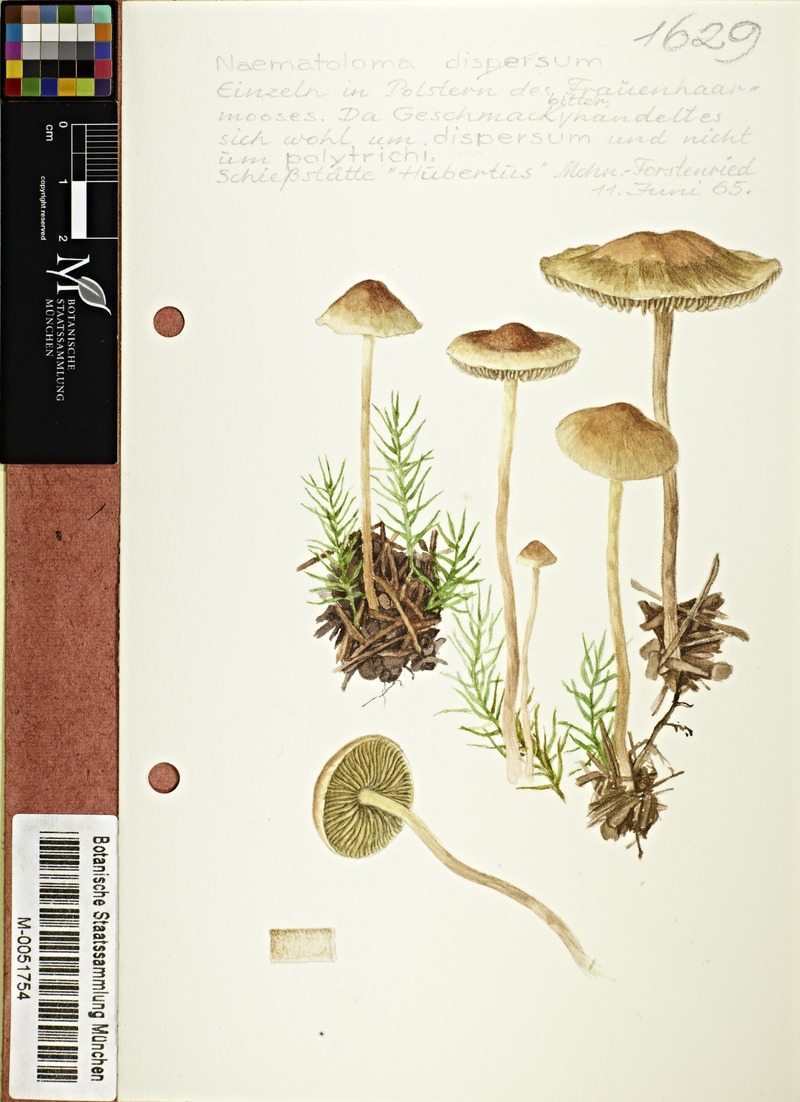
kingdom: Fungi
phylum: Basidiomycota
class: Agaricomycetes
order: Agaricales
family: Strophariaceae
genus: Hypholoma
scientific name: Hypholoma marginatum
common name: Snakeskin brownie
